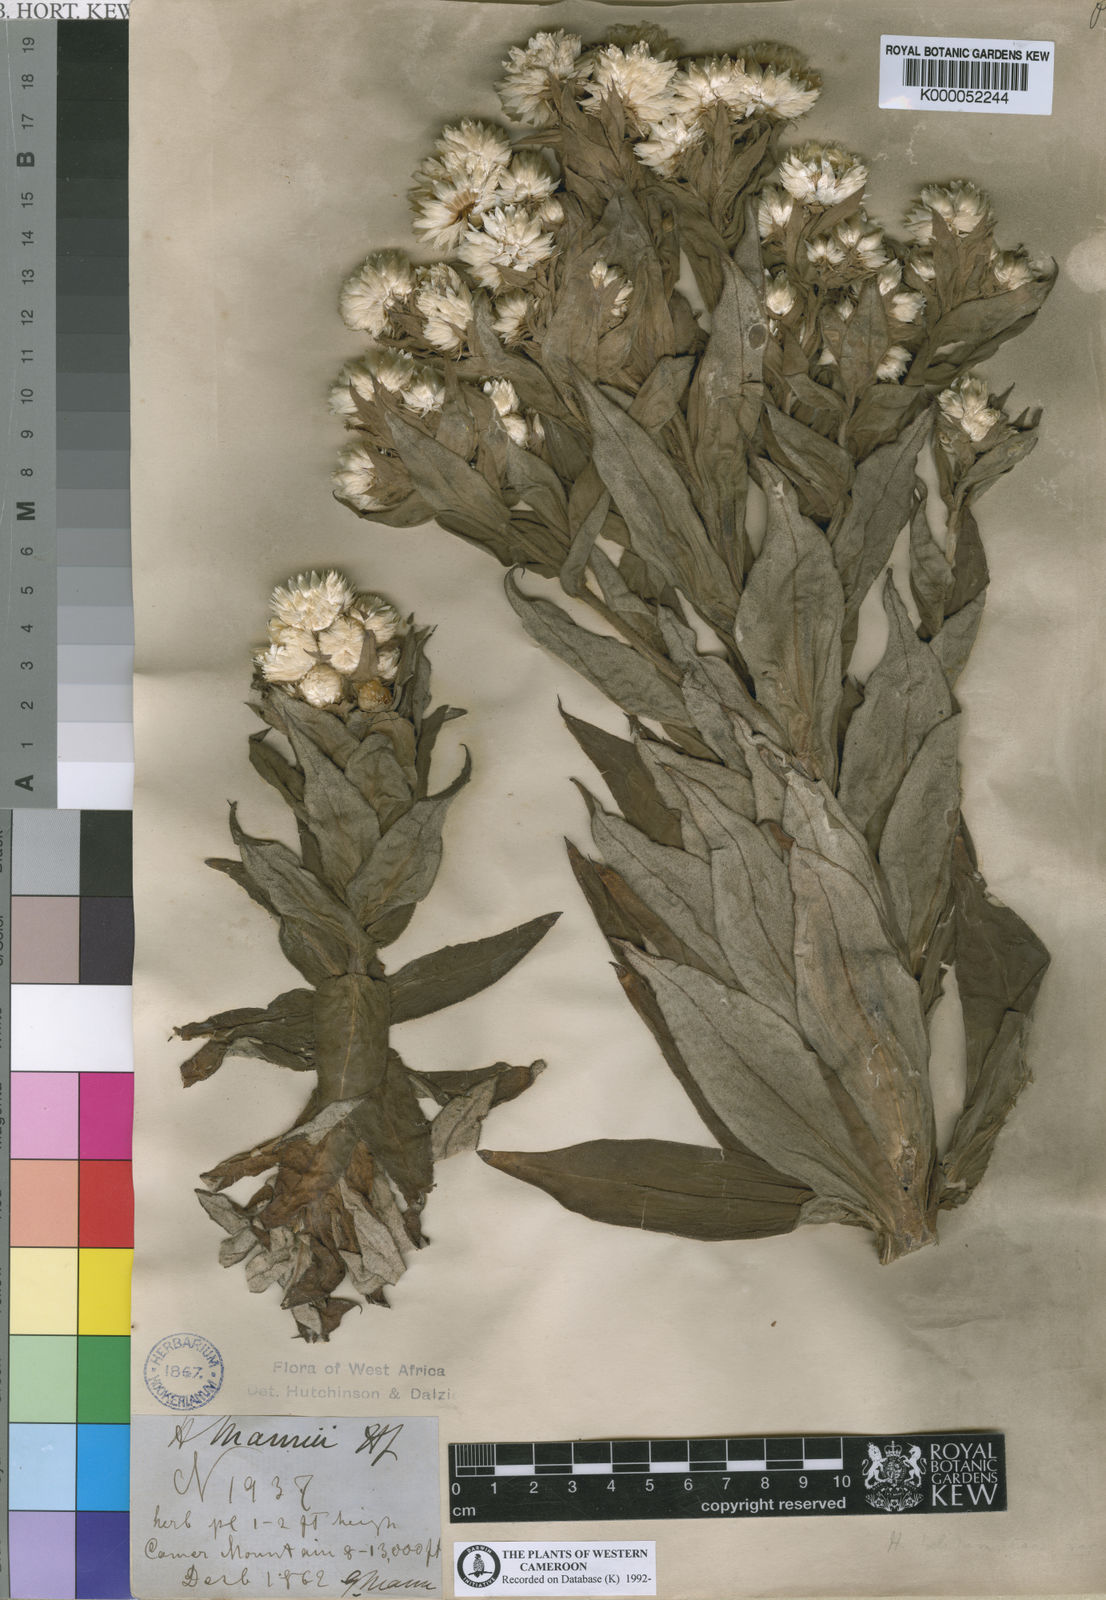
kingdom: Plantae
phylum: Tracheophyta
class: Magnoliopsida
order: Asterales
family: Asteraceae
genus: Helichrysum
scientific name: Helichrysum mannii
